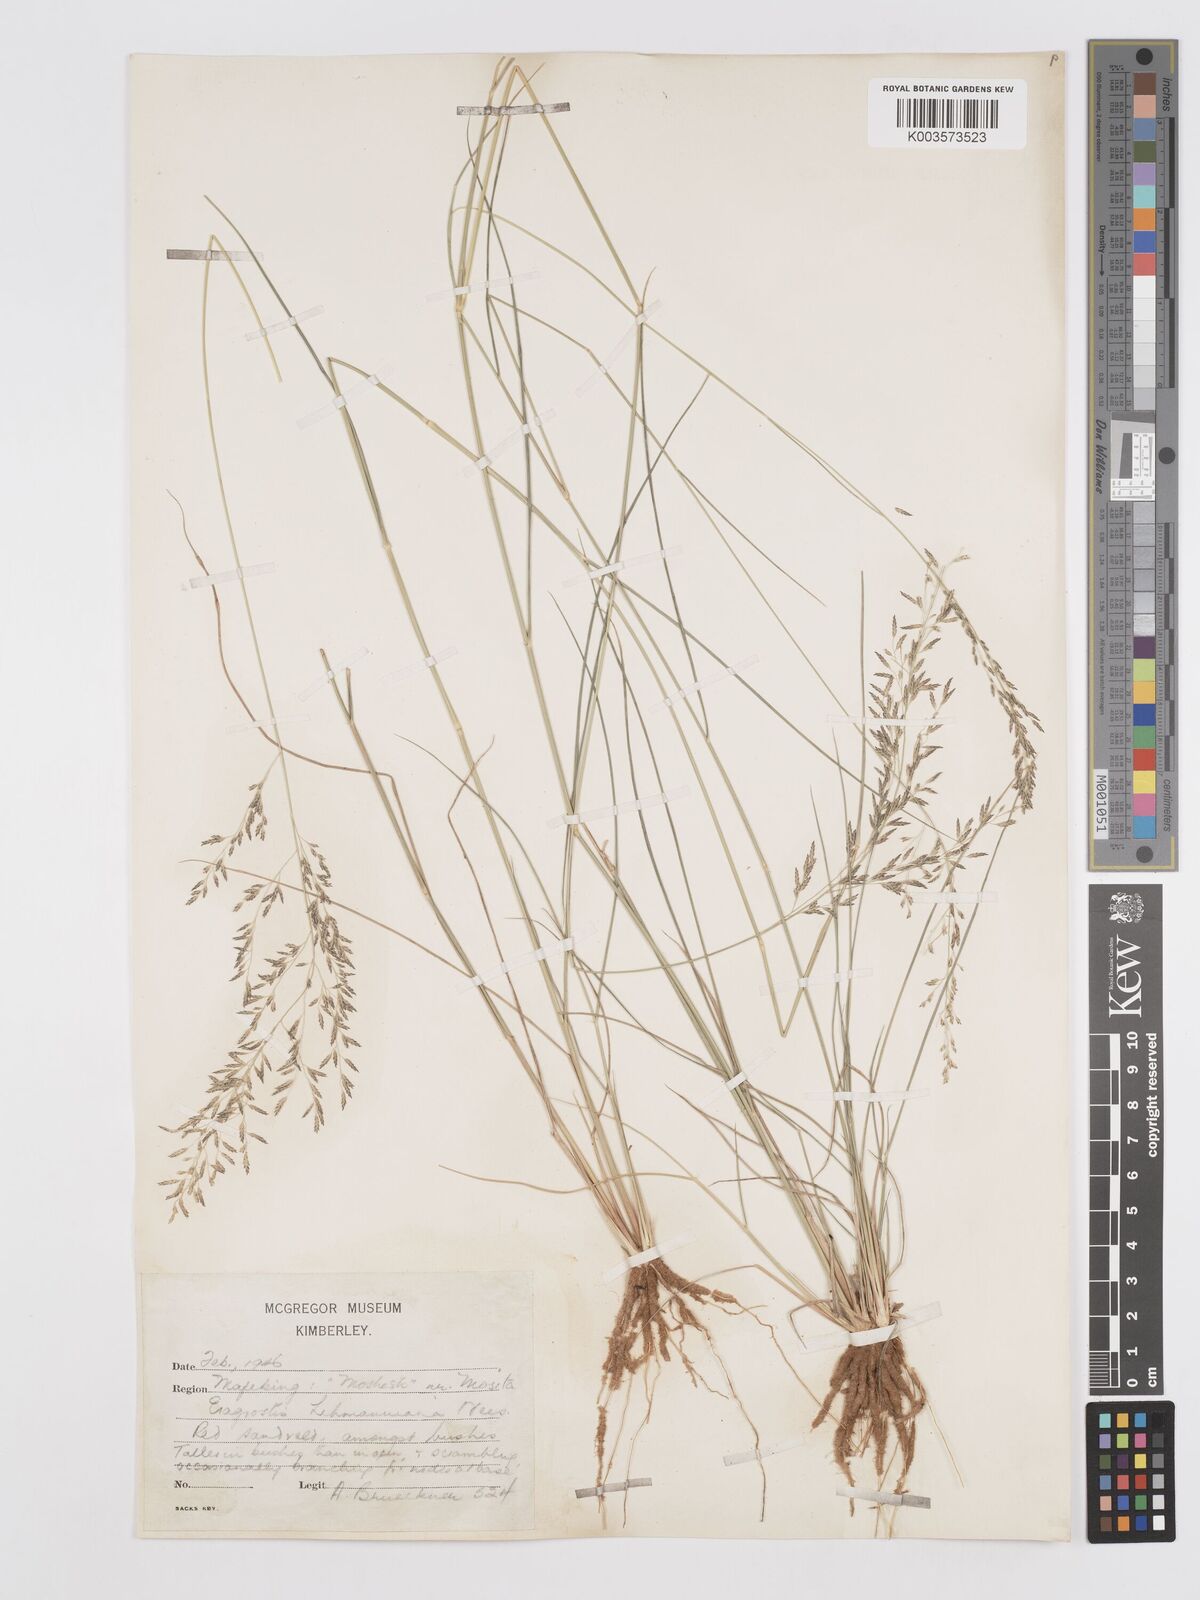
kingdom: Plantae
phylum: Tracheophyta
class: Liliopsida
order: Poales
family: Poaceae
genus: Eragrostis
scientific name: Eragrostis lehmanniana
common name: Lehmann lovegrass
